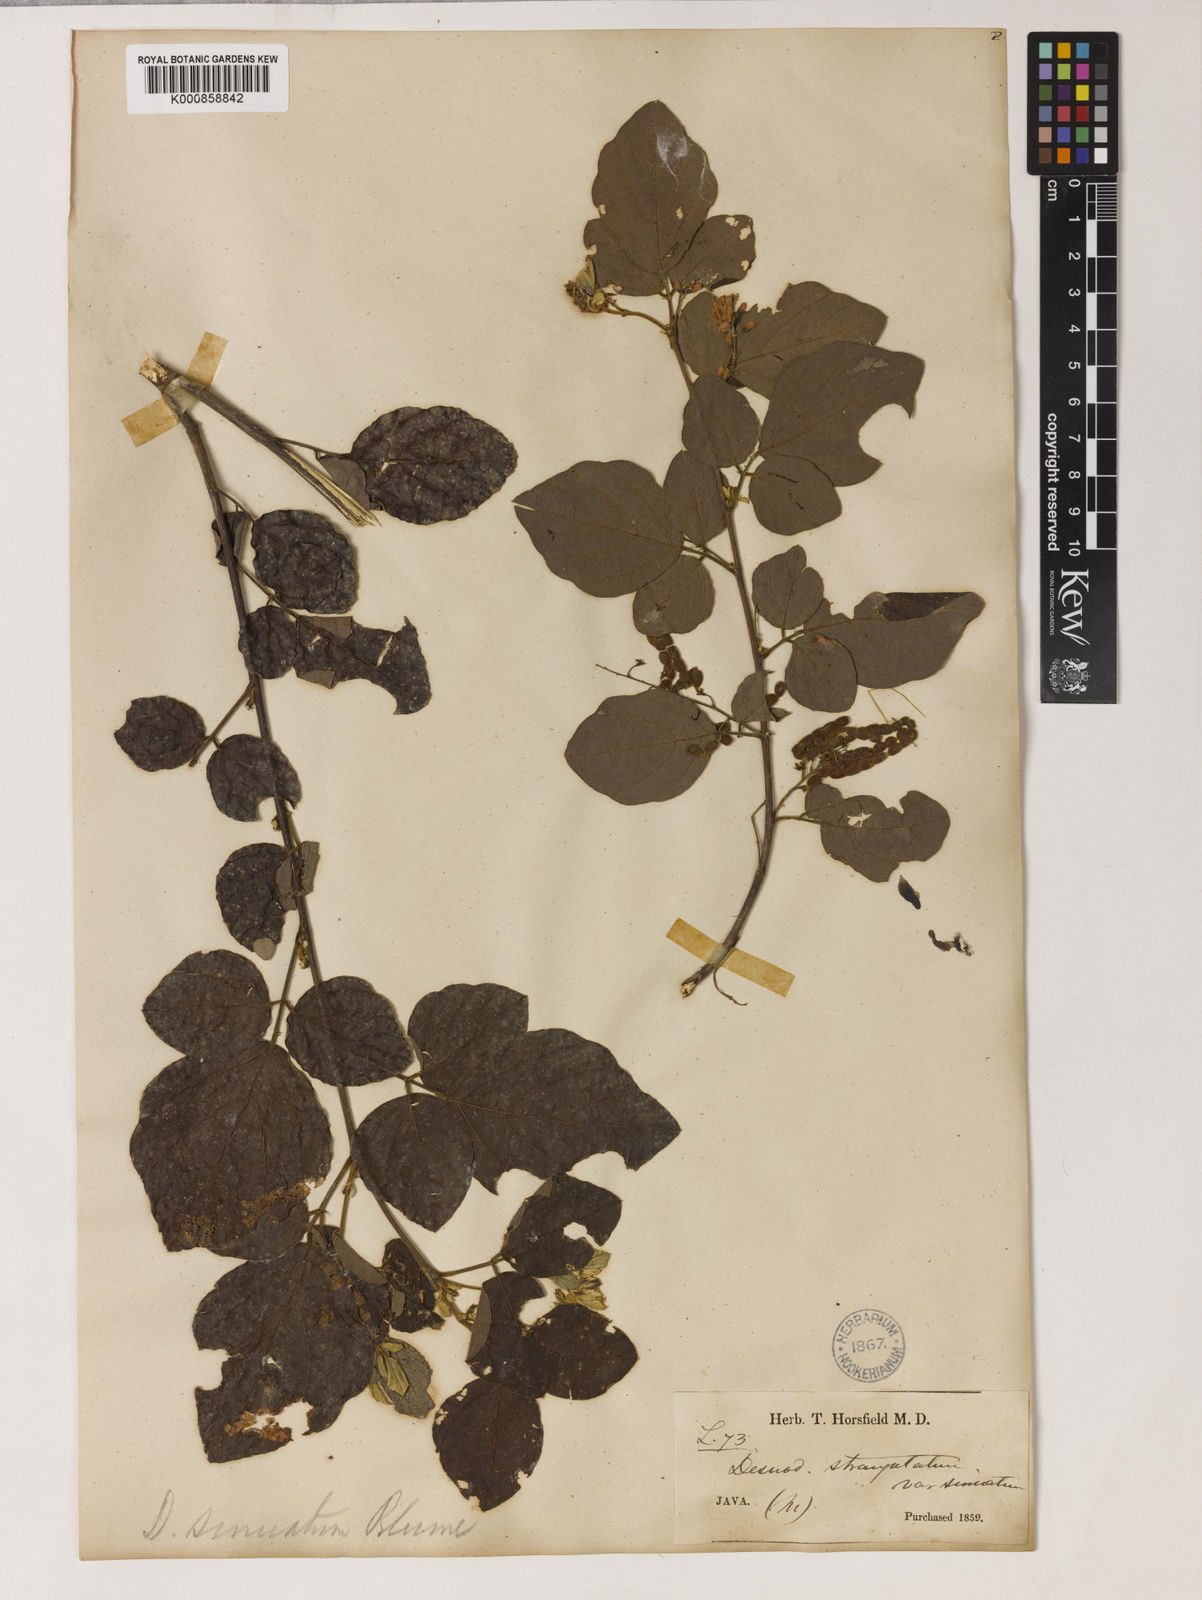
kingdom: Plantae
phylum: Tracheophyta
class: Magnoliopsida
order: Fabales
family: Fabaceae
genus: Puhuaea
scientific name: Puhuaea sequax
